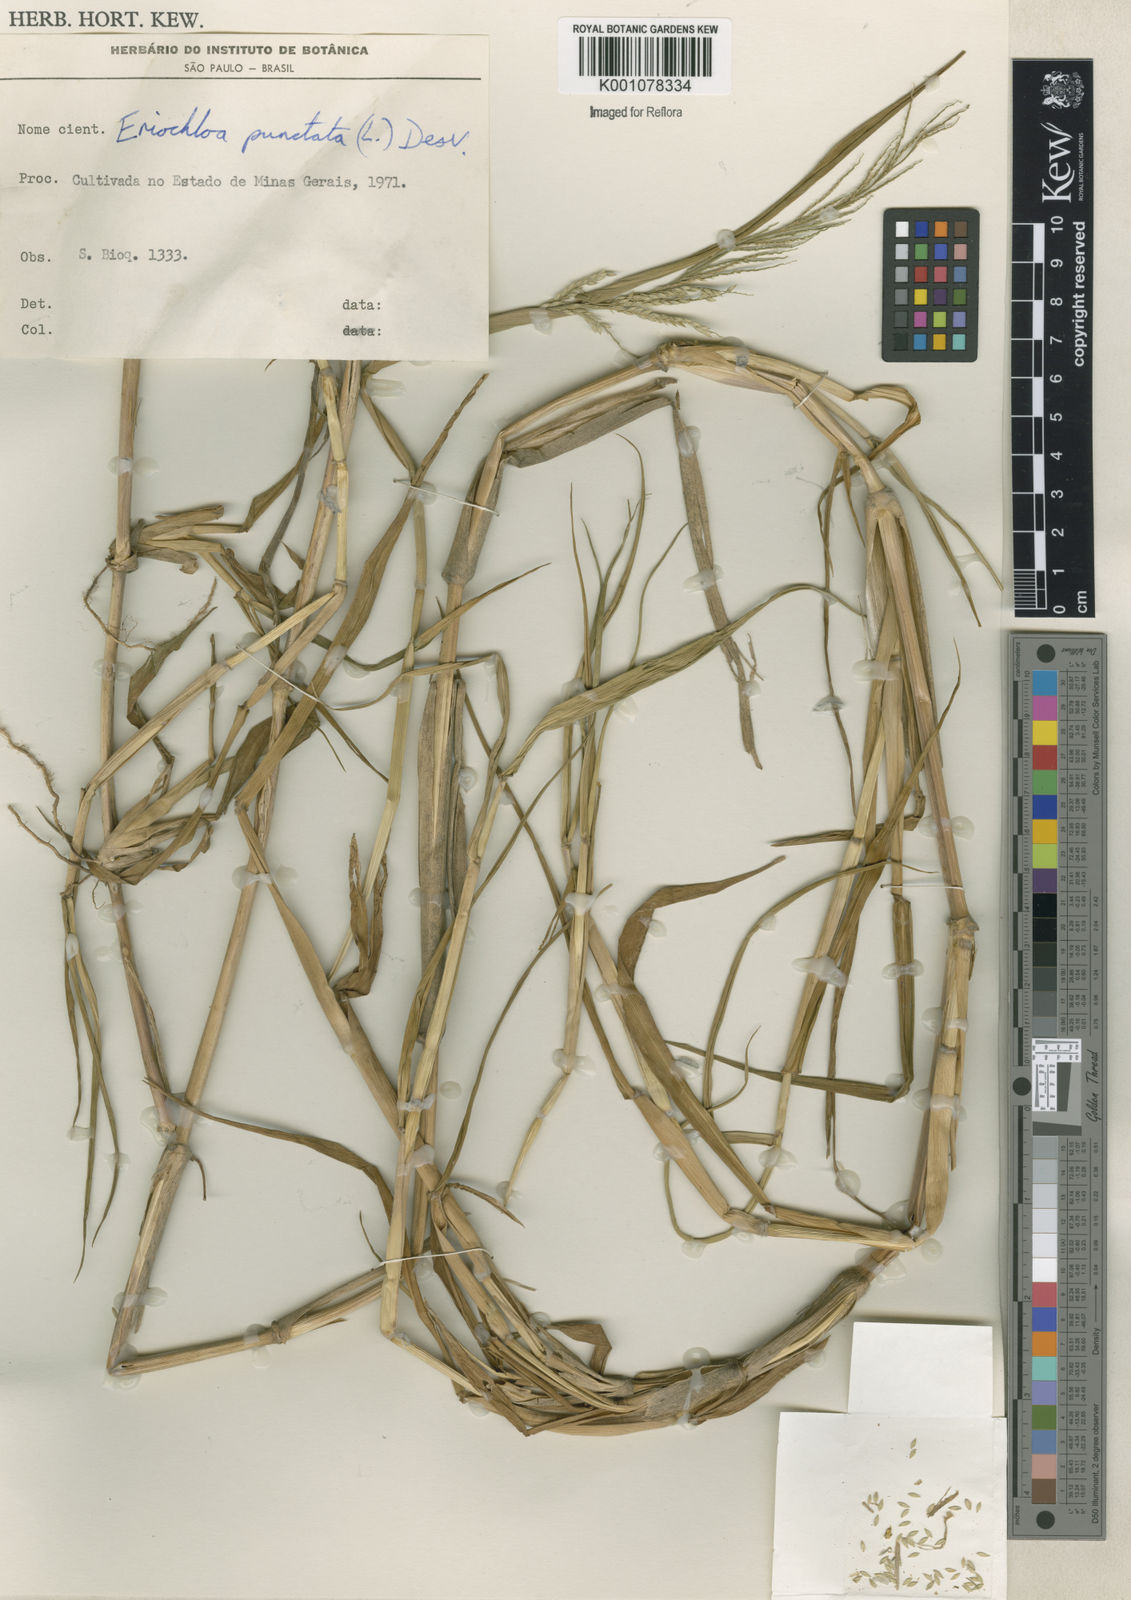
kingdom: Plantae
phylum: Tracheophyta
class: Liliopsida
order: Poales
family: Poaceae
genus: Urochloa
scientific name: Urochloa polystachya
